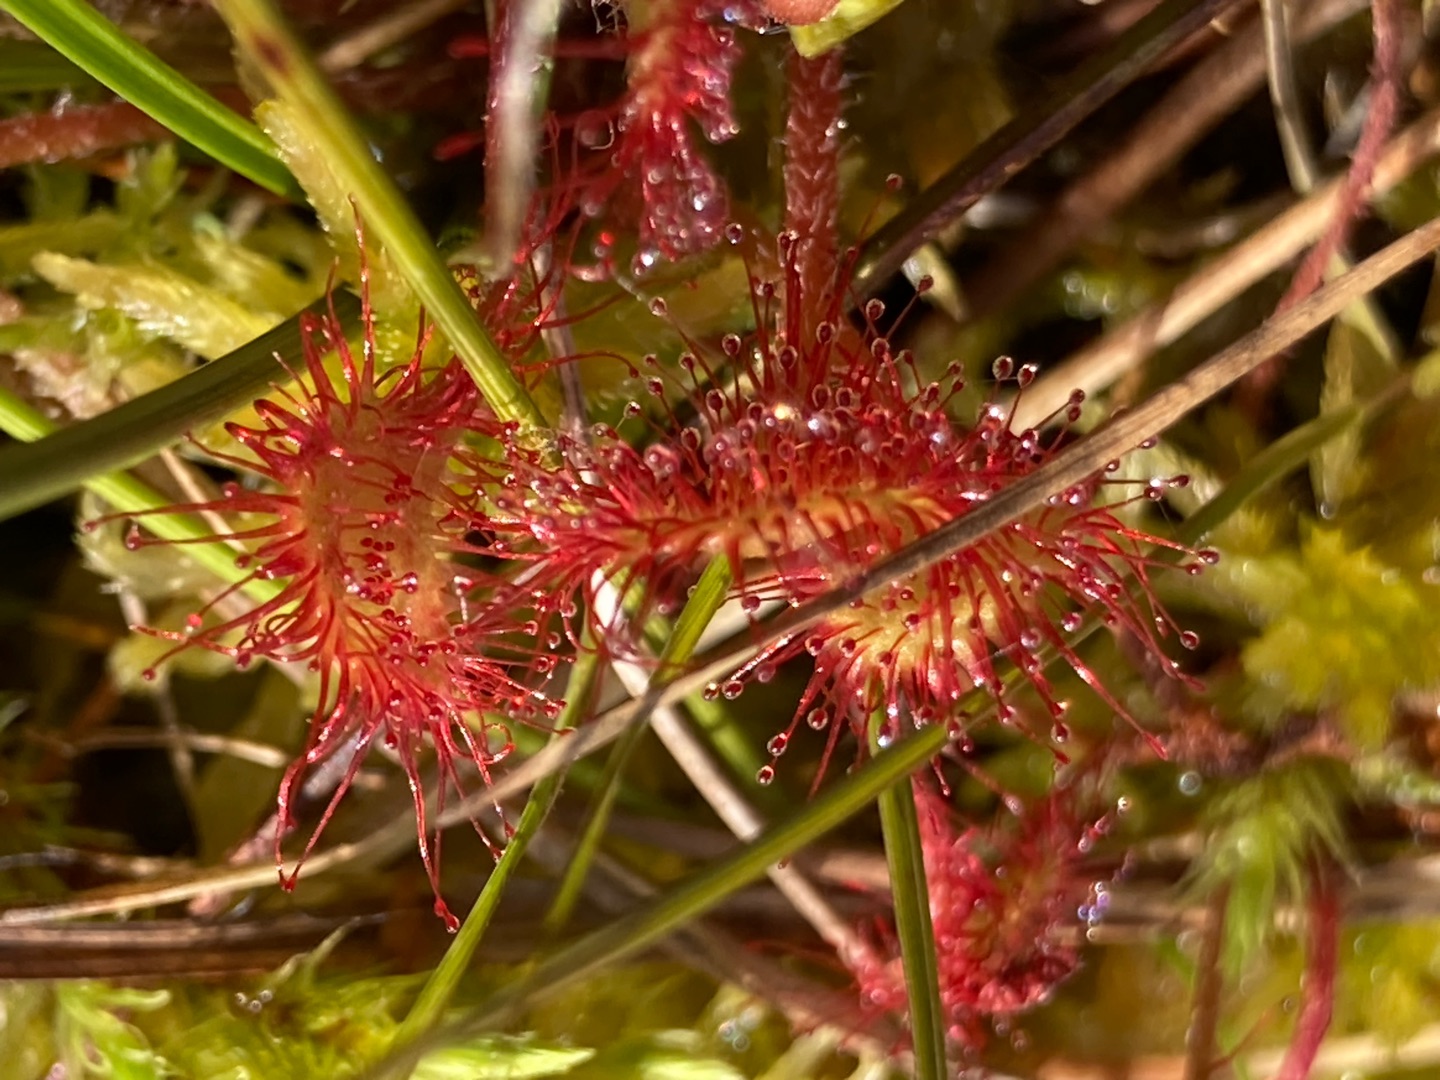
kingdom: Plantae
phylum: Tracheophyta
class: Magnoliopsida
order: Caryophyllales
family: Droseraceae
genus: Drosera
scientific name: Drosera rotundifolia
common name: Rundbladet soldug
